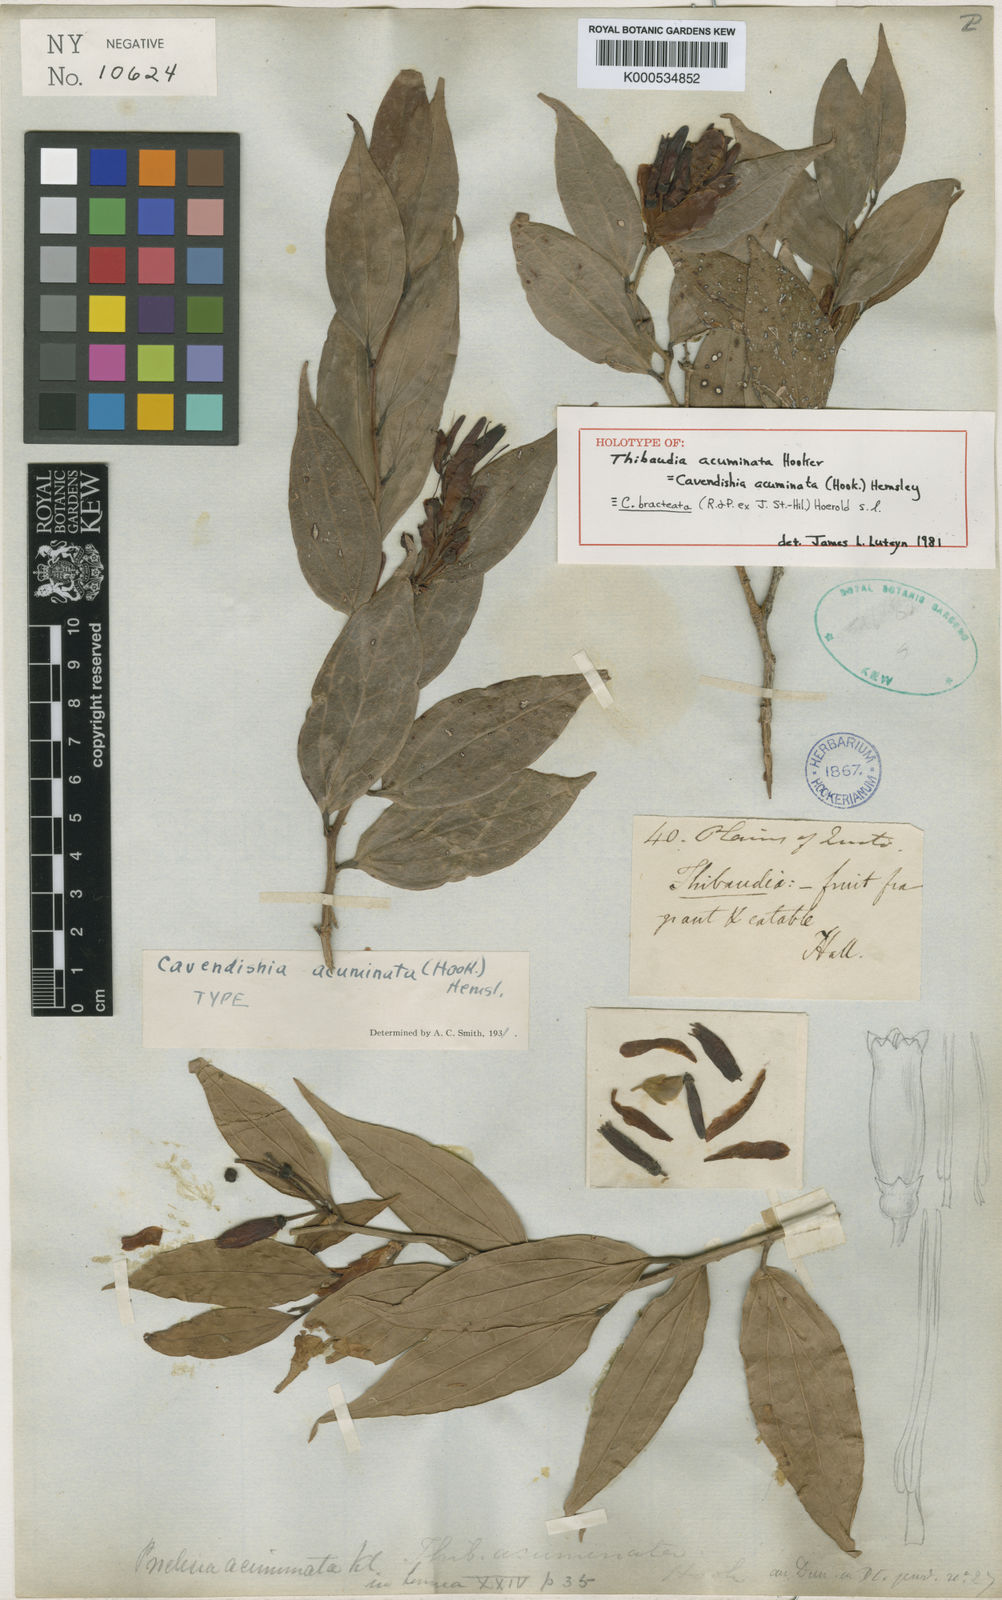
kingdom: Plantae
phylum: Tracheophyta
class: Magnoliopsida
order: Ericales
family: Ericaceae
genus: Cavendishia
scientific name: Cavendishia bracteata
